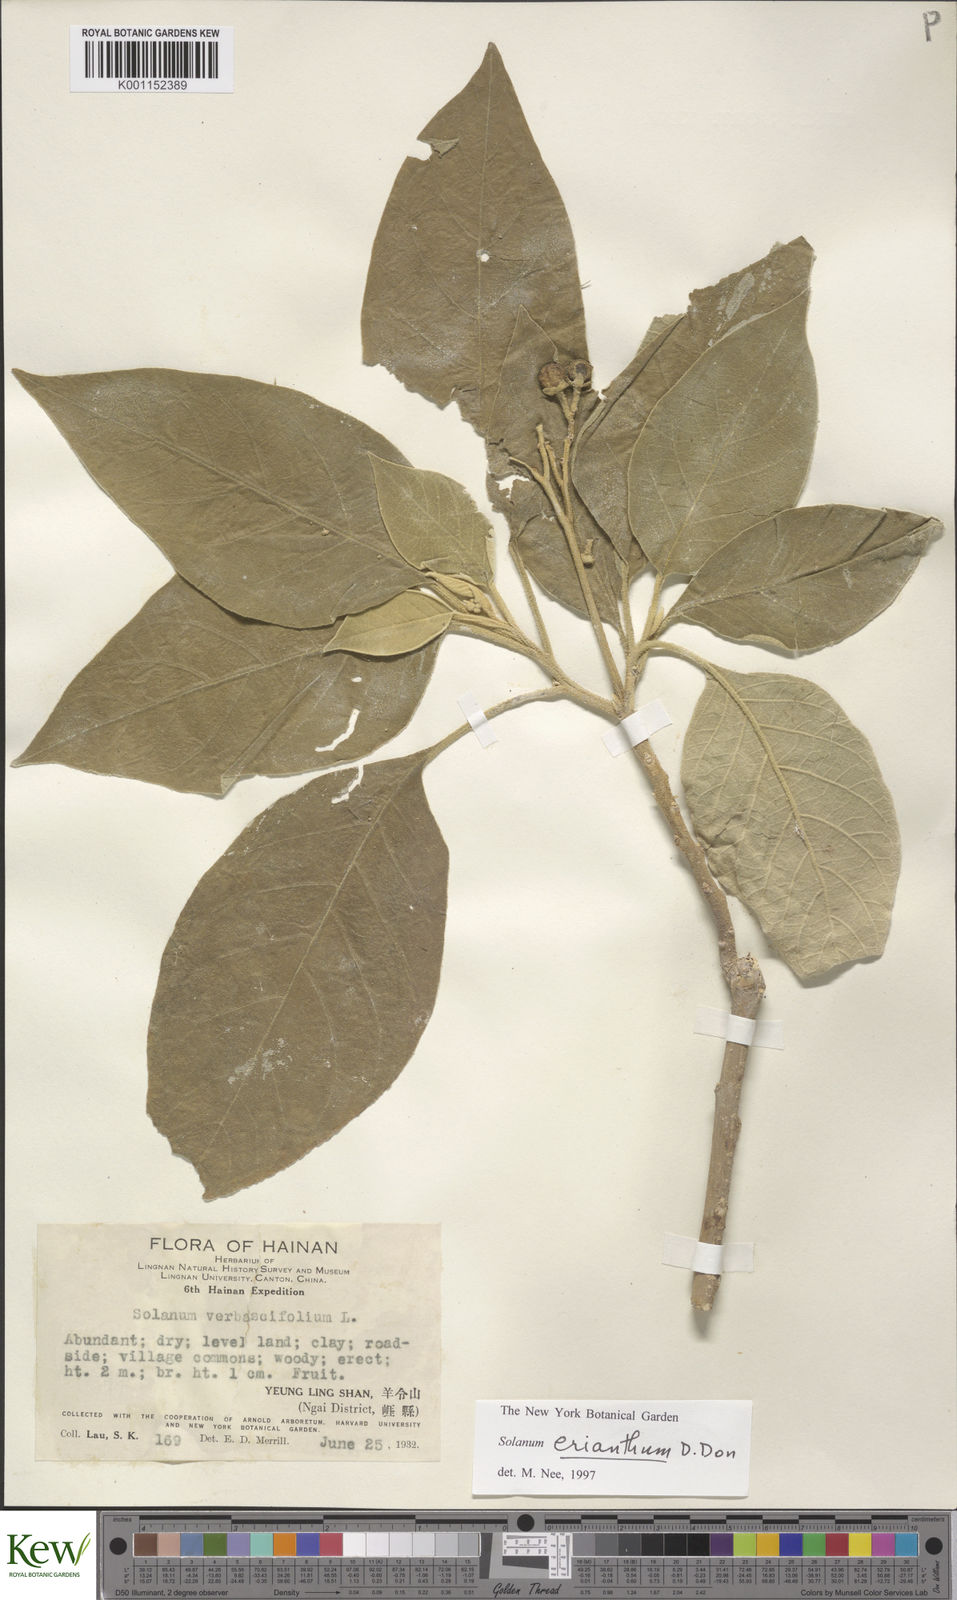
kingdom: Plantae
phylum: Tracheophyta
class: Magnoliopsida
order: Solanales
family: Solanaceae
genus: Solanum
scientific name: Solanum donianum
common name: Mullein nightshade
